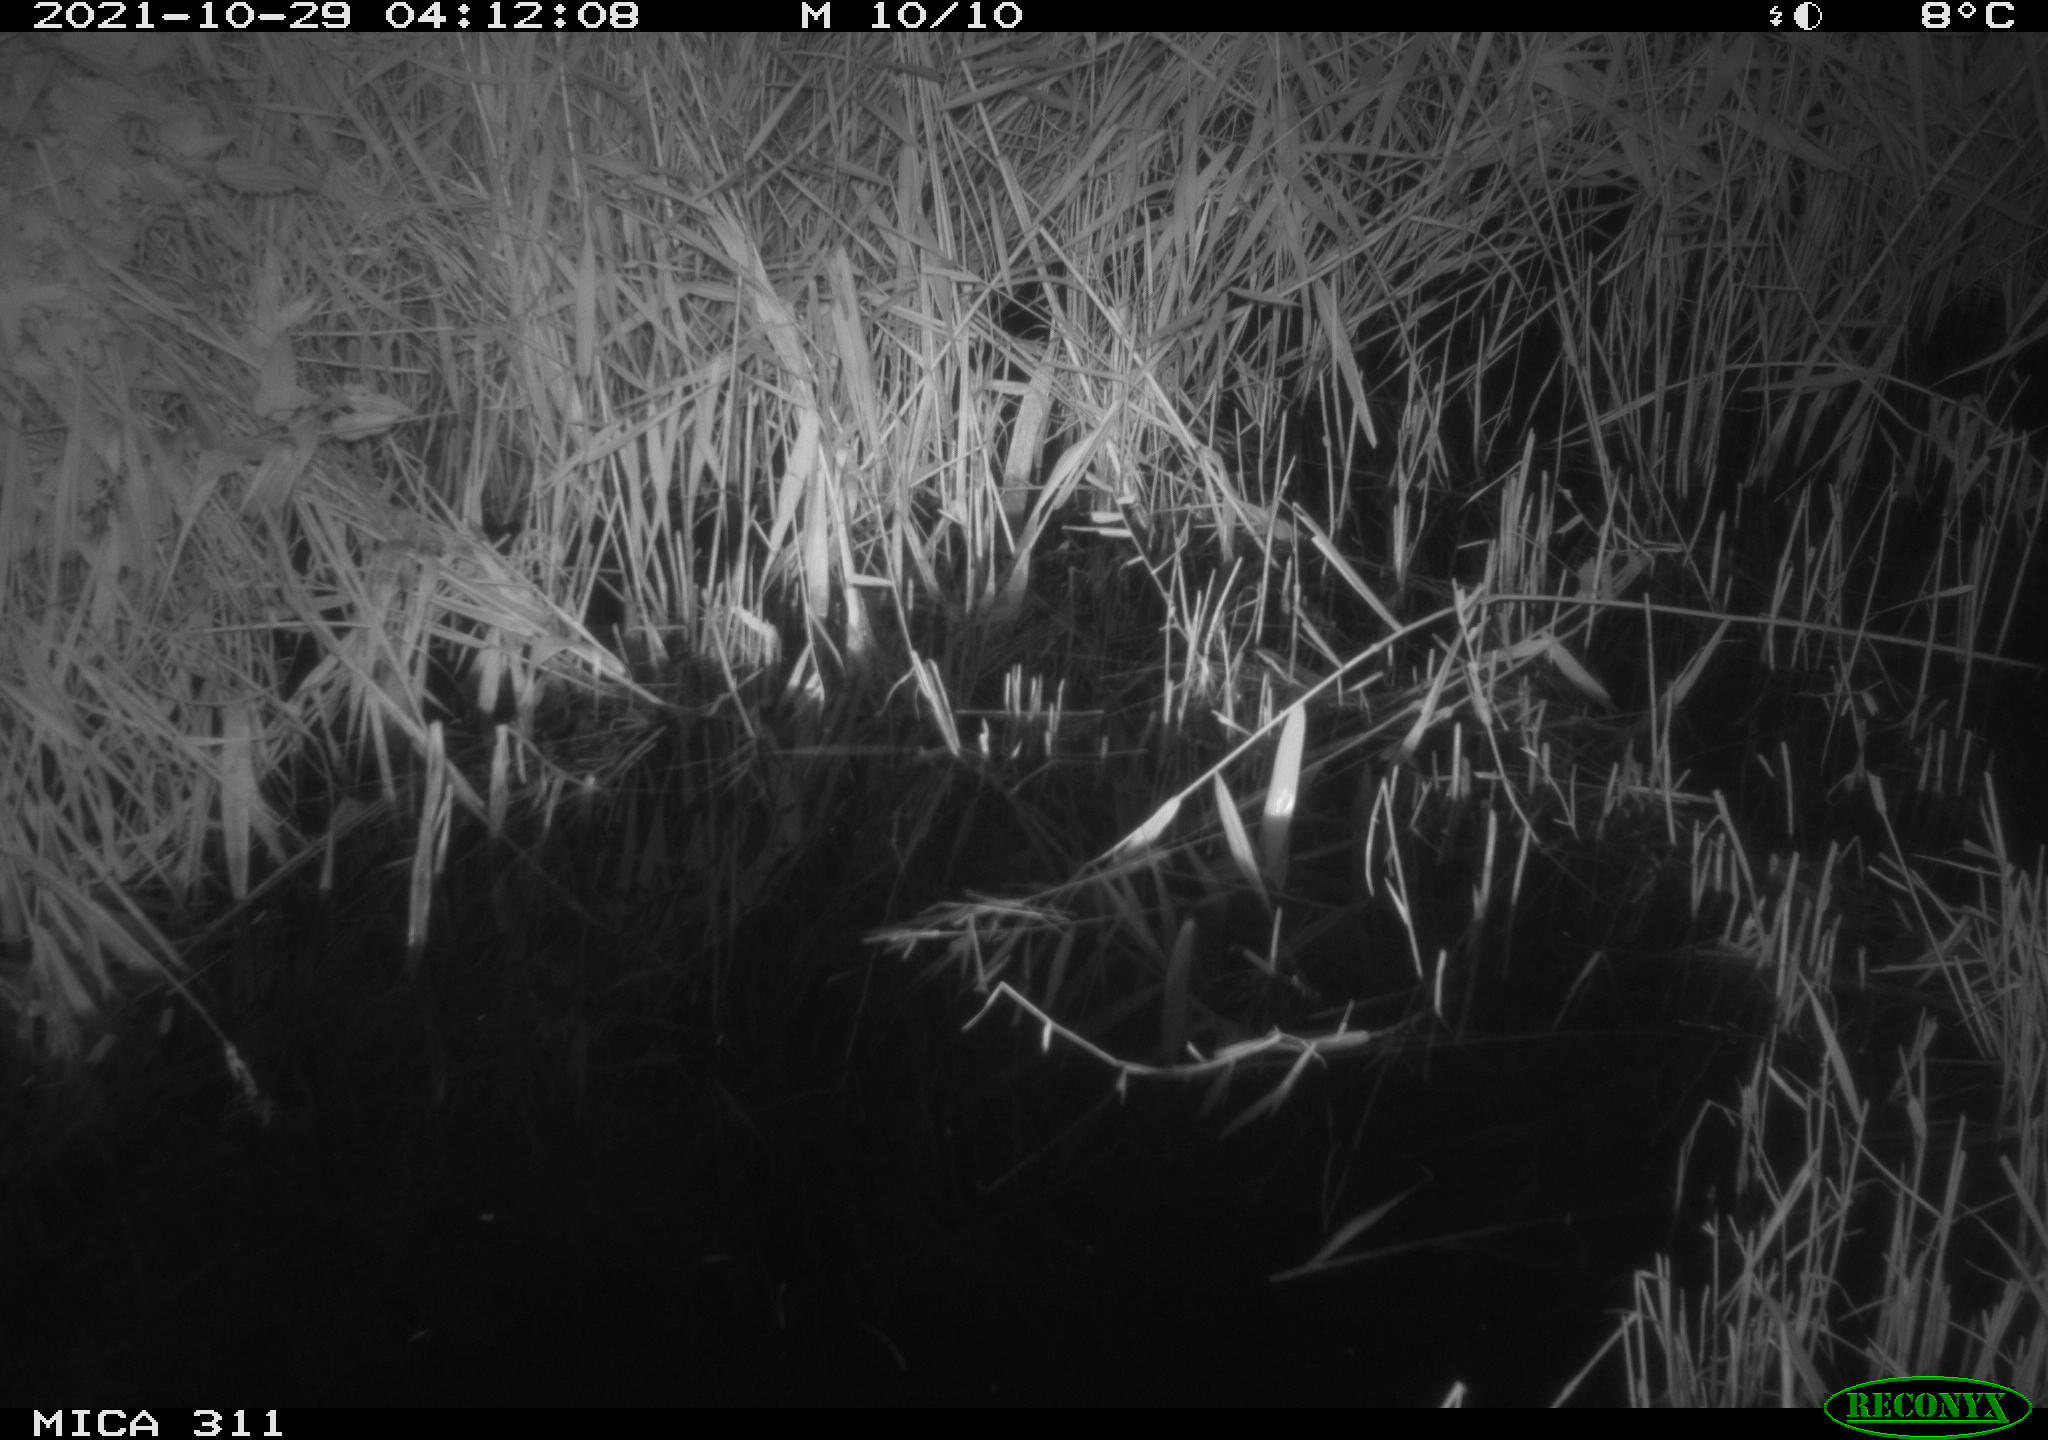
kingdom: Animalia
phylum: Chordata
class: Mammalia
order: Rodentia
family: Muridae
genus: Rattus
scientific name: Rattus norvegicus
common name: Brown rat
